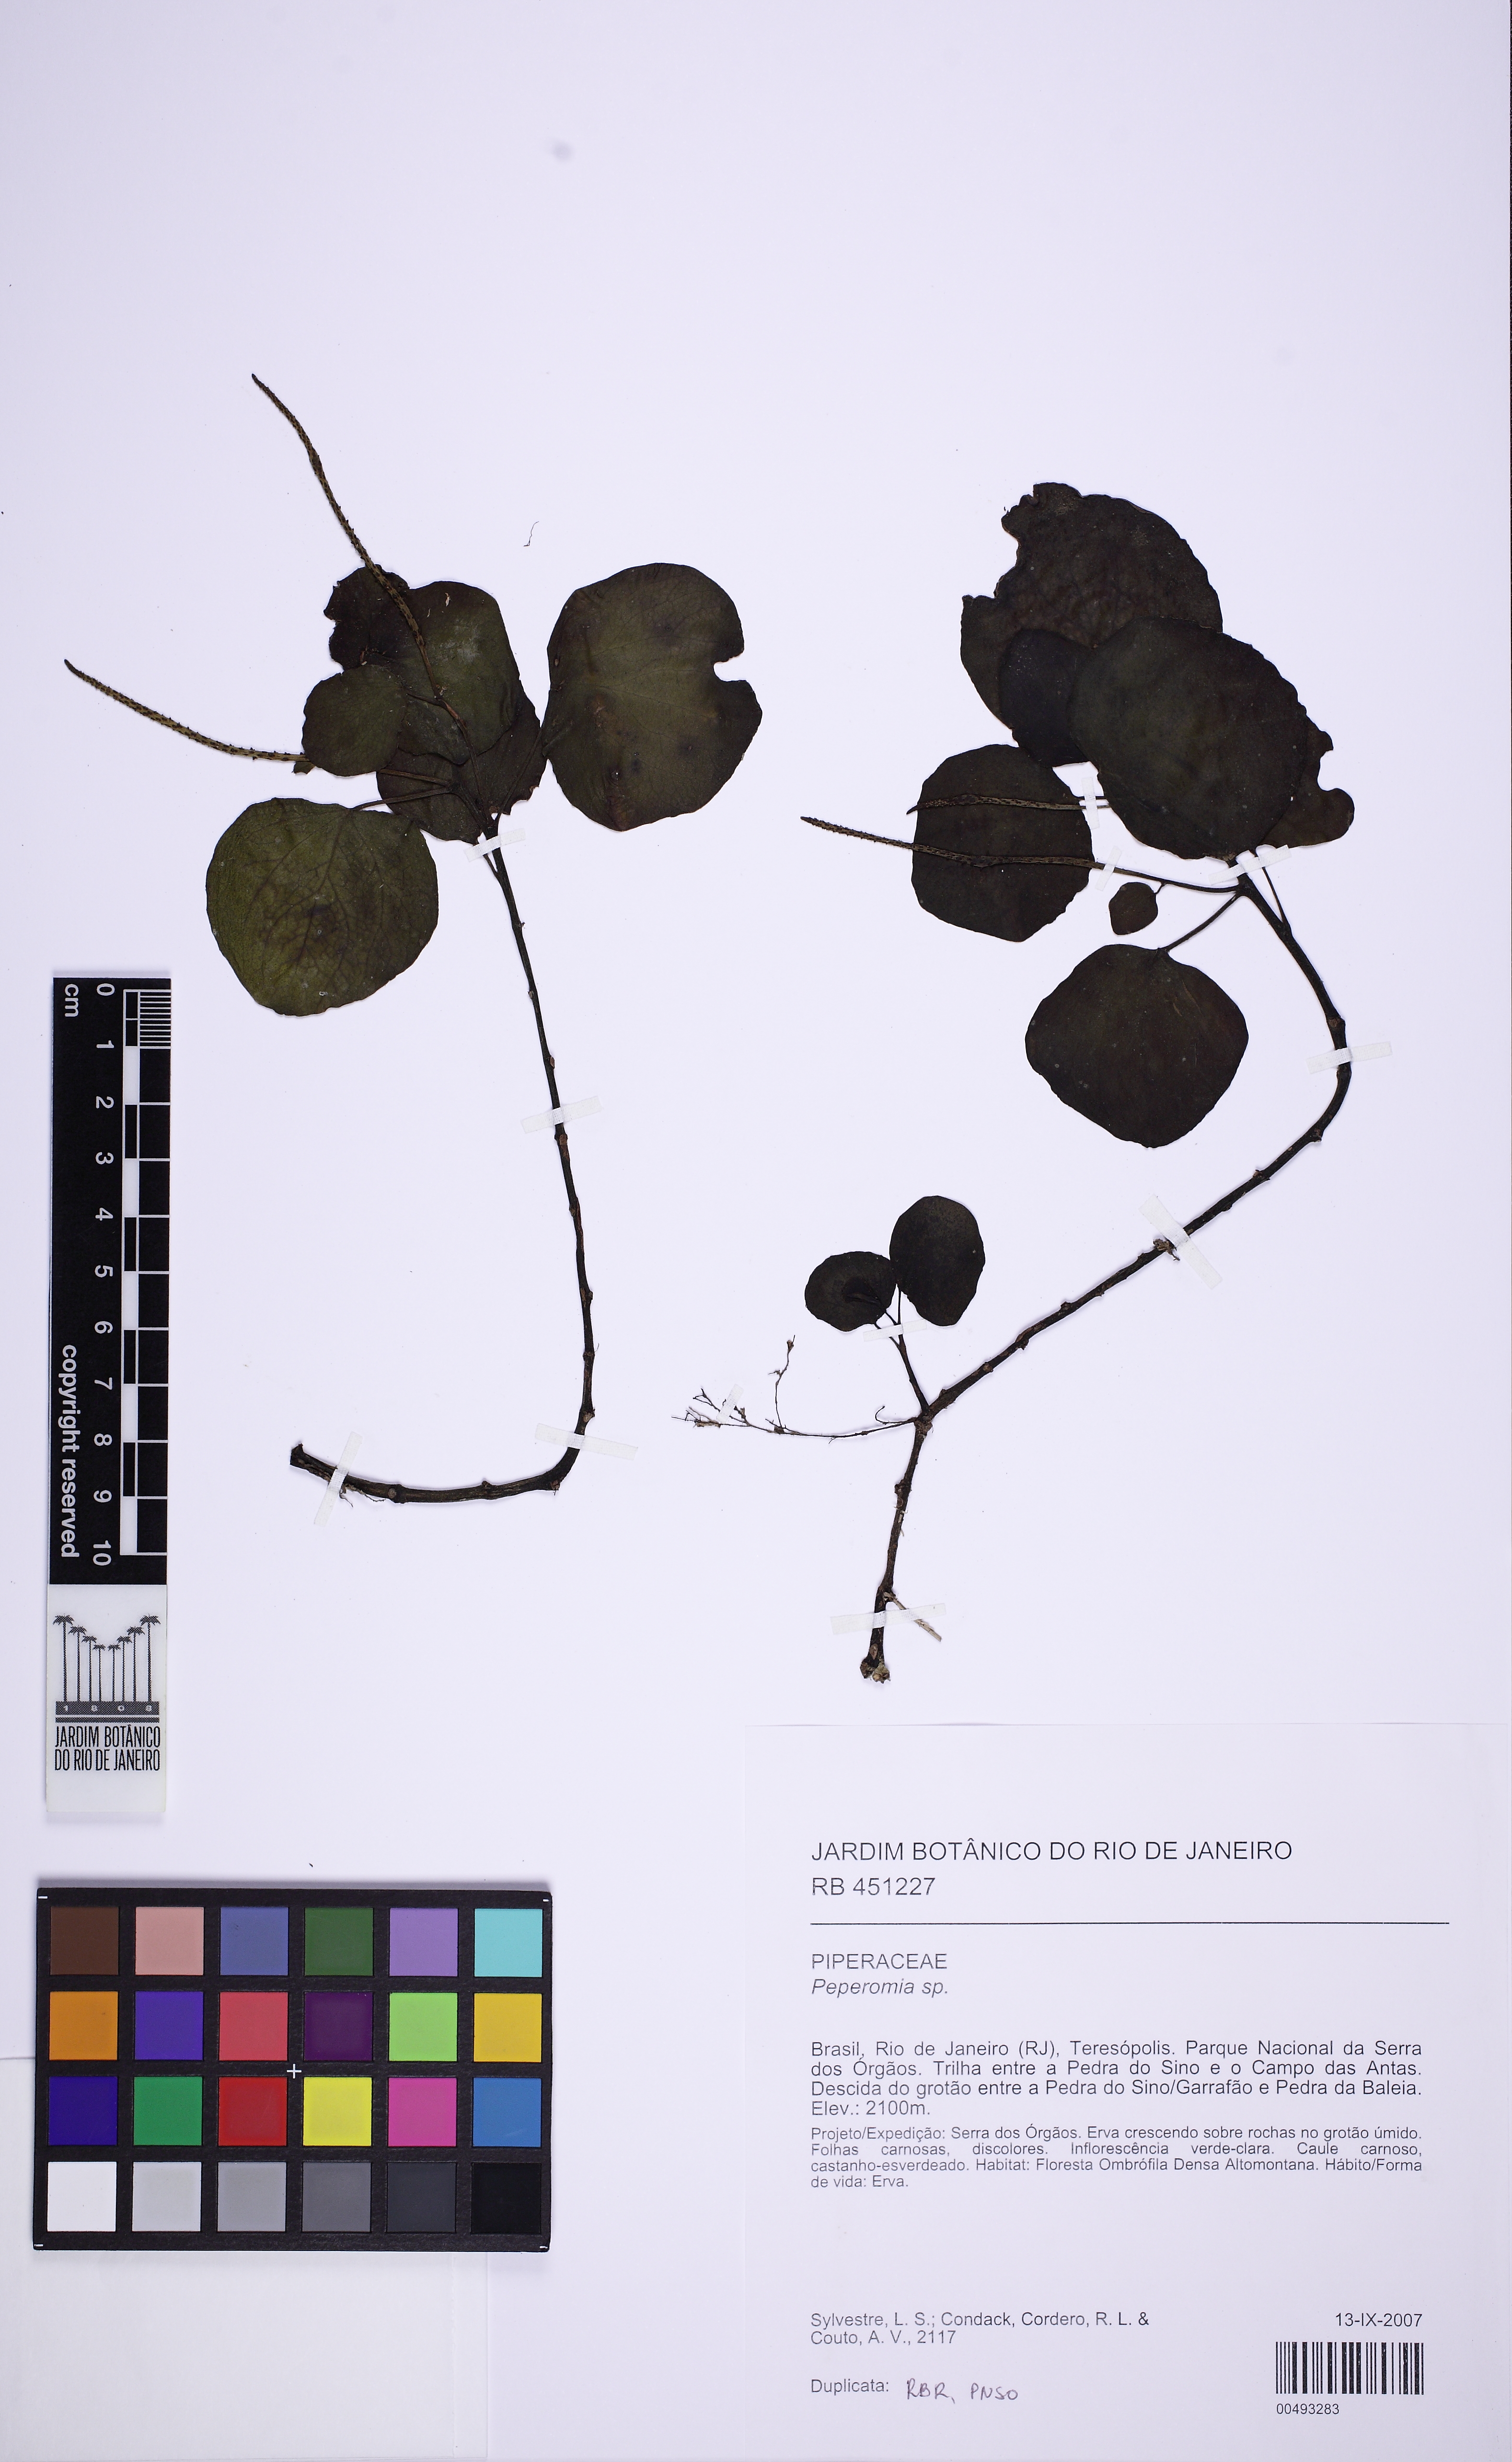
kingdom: Plantae
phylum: Tracheophyta
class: Magnoliopsida
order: Piperales
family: Piperaceae
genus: Peperomia
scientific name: Peperomia arifolia
